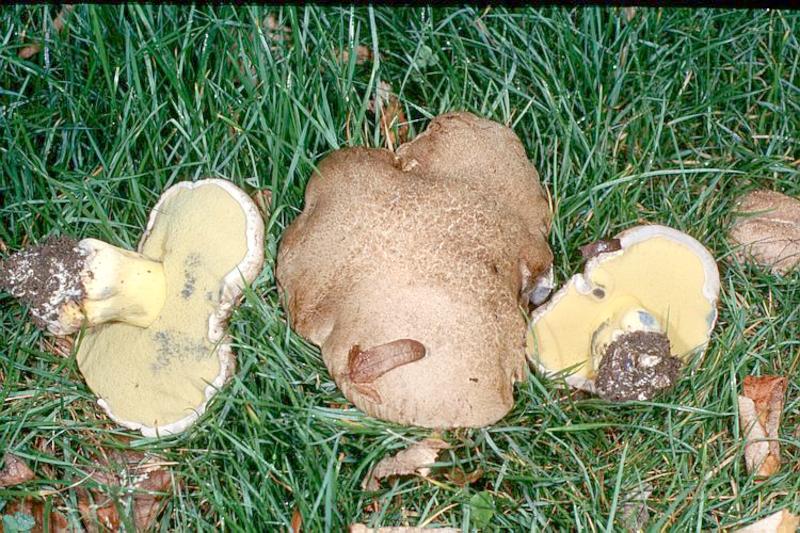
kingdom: Fungi
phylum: Basidiomycota
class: Agaricomycetes
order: Boletales
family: Boletaceae
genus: Caloboletus
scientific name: Caloboletus radicans
